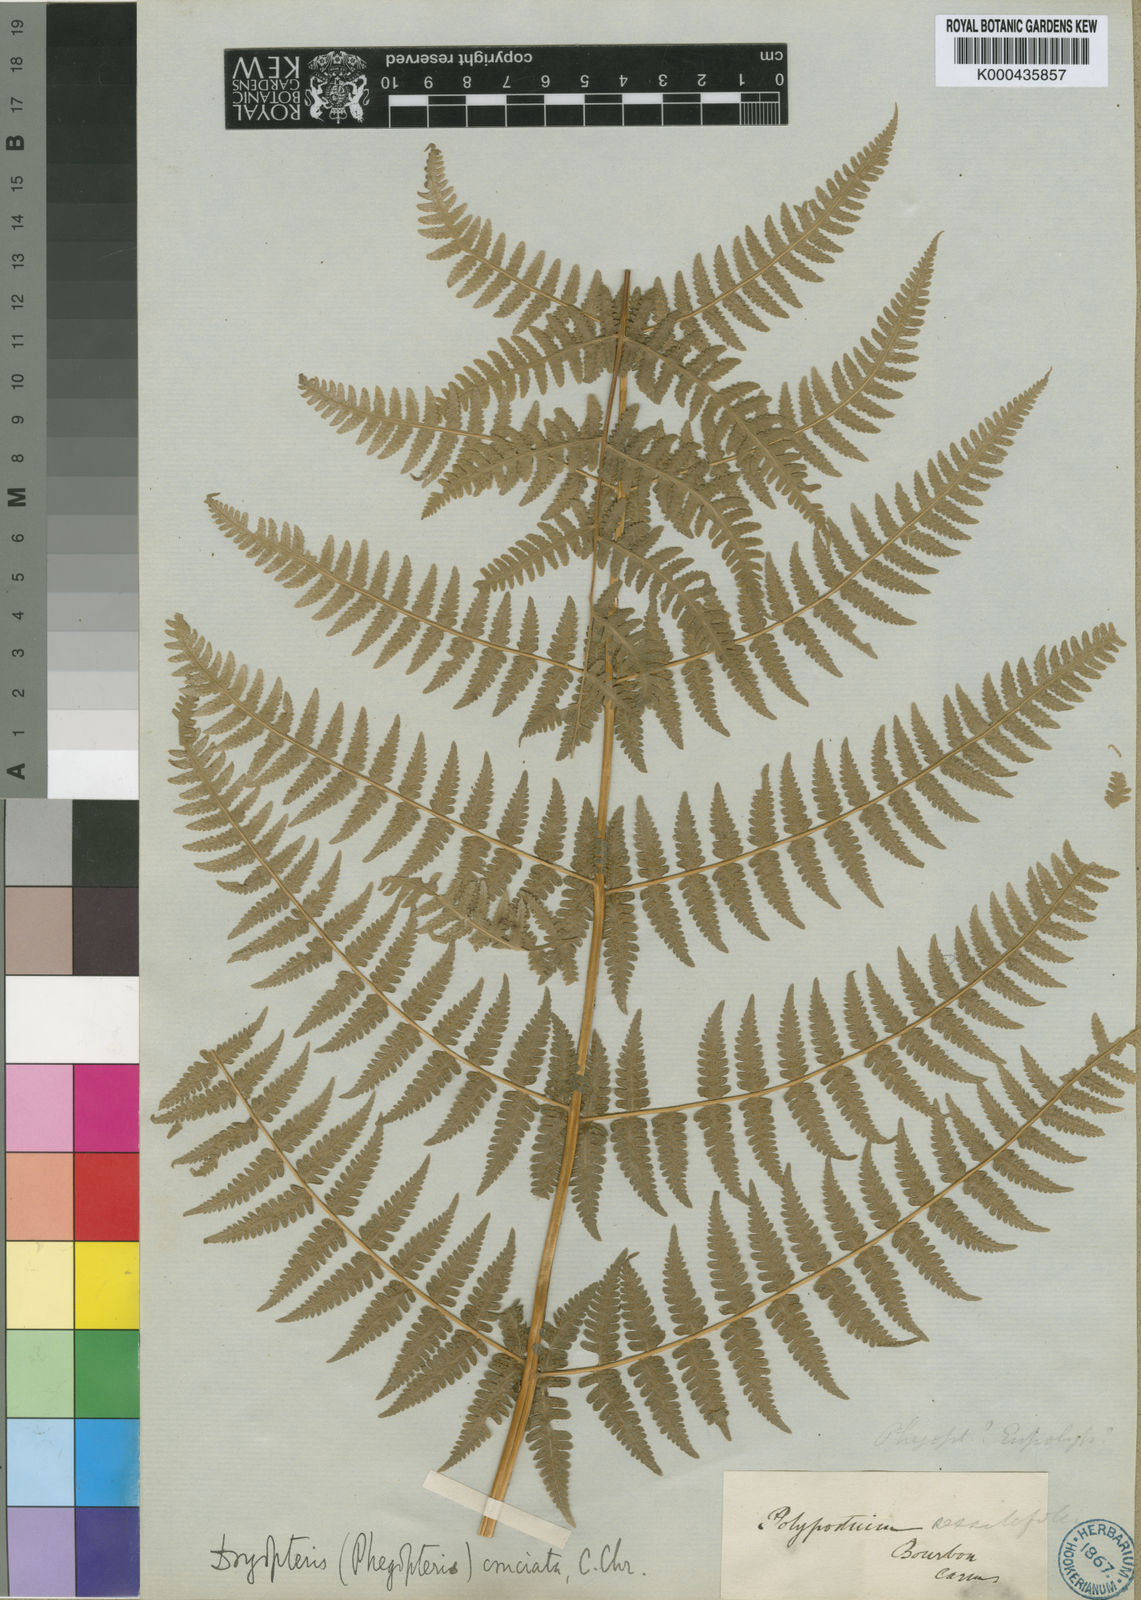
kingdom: Plantae
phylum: Tracheophyta
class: Polypodiopsida
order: Polypodiales
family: Thelypteridaceae
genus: Pseudophegopteris
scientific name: Pseudophegopteris cruciata
